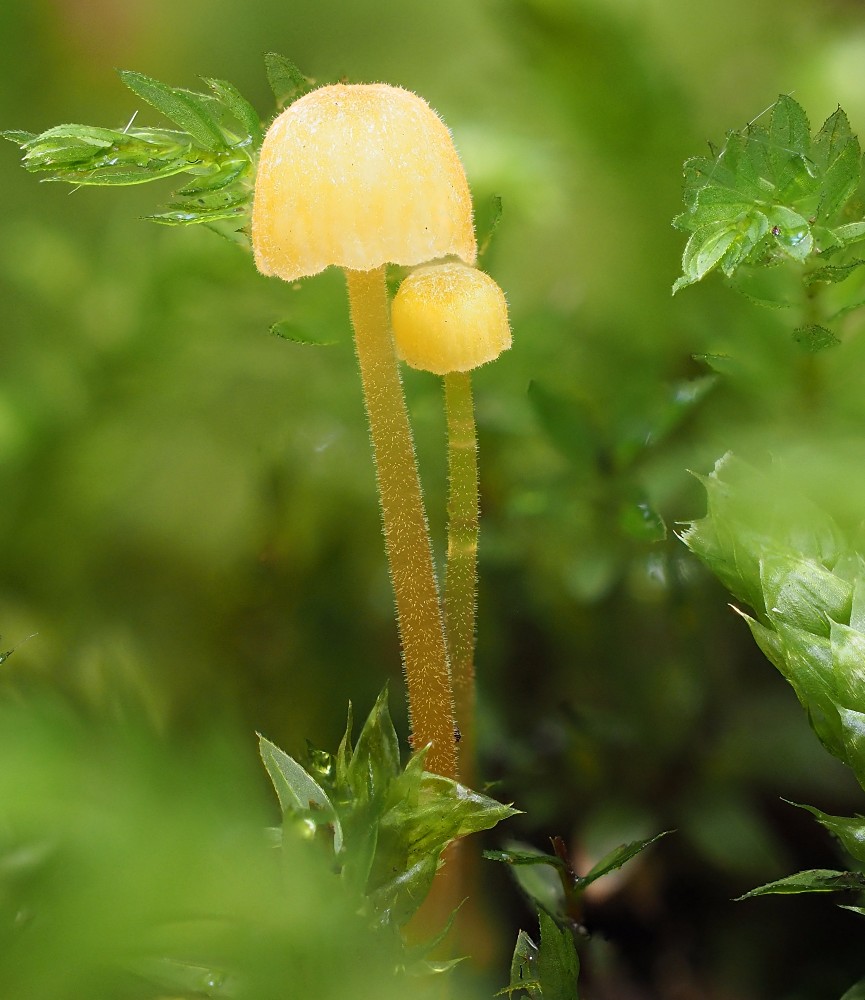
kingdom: Fungi
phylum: Basidiomycota
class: Agaricomycetes
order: Hymenochaetales
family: Rickenellaceae
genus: Rickenella
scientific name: Rickenella fibula
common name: orange mosnavlehat
